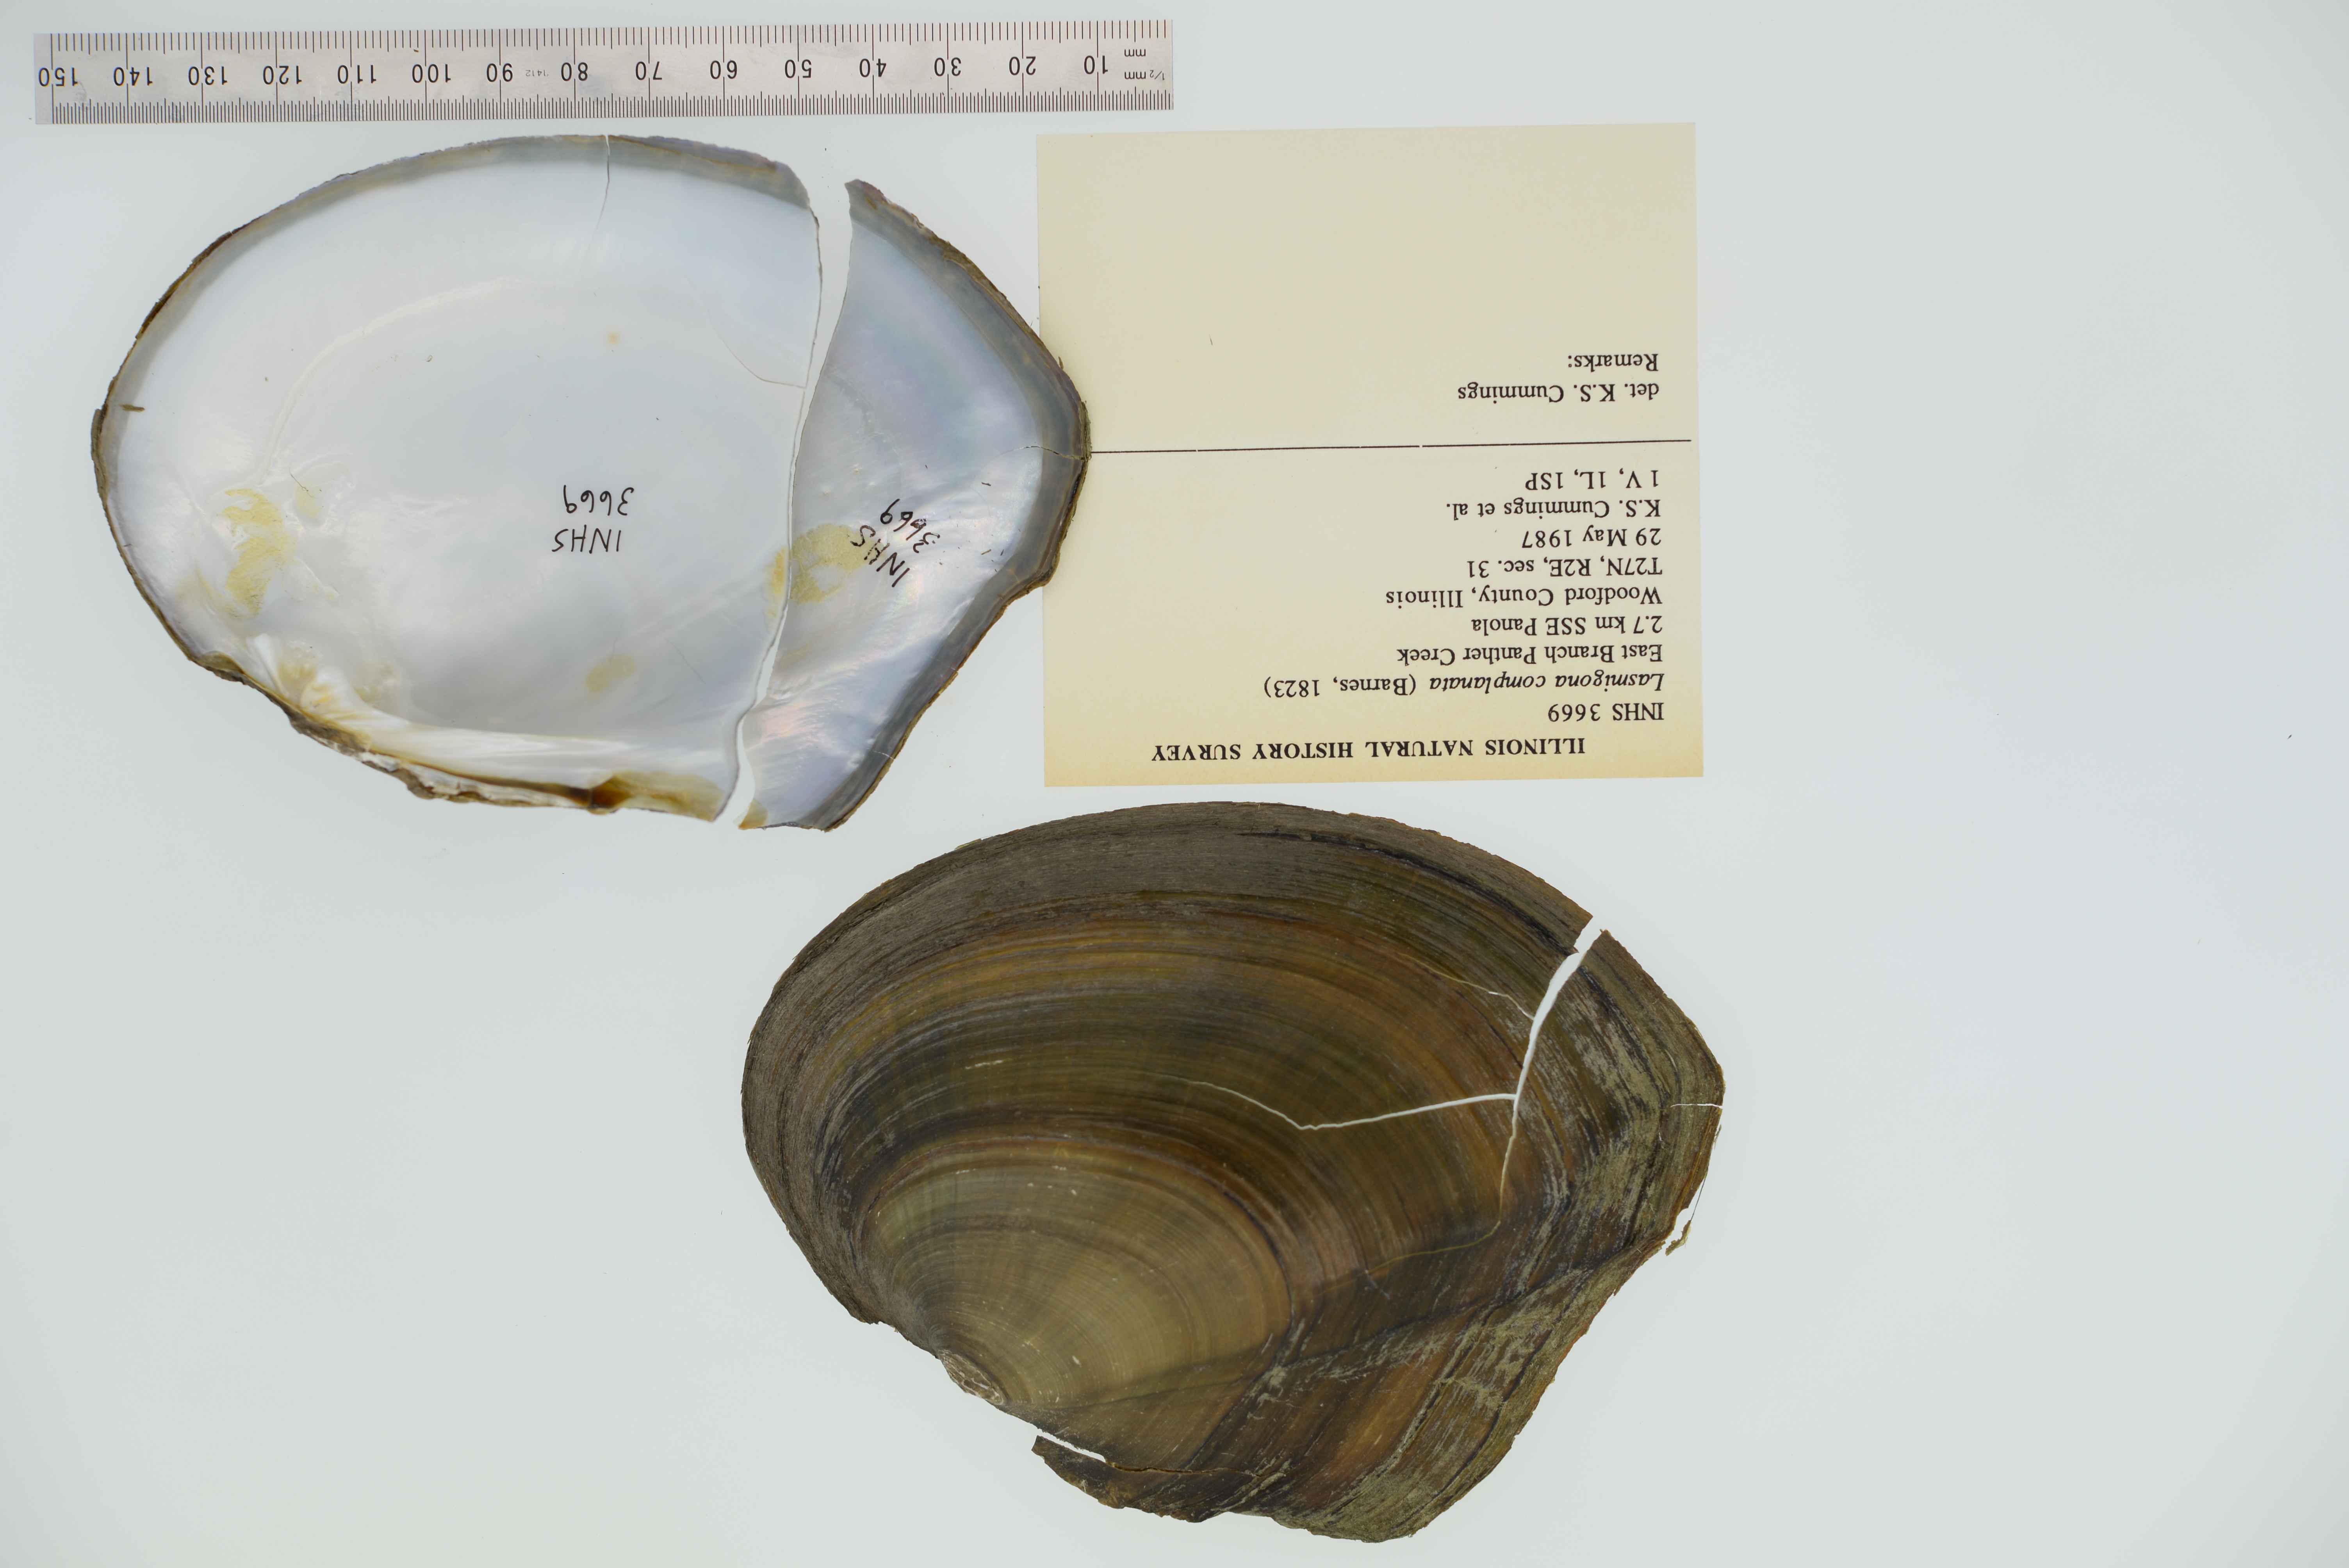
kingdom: Animalia
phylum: Mollusca
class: Bivalvia
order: Unionida
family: Unionidae
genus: Lasmigona
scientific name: Lasmigona complanata
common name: White heelsplitter
